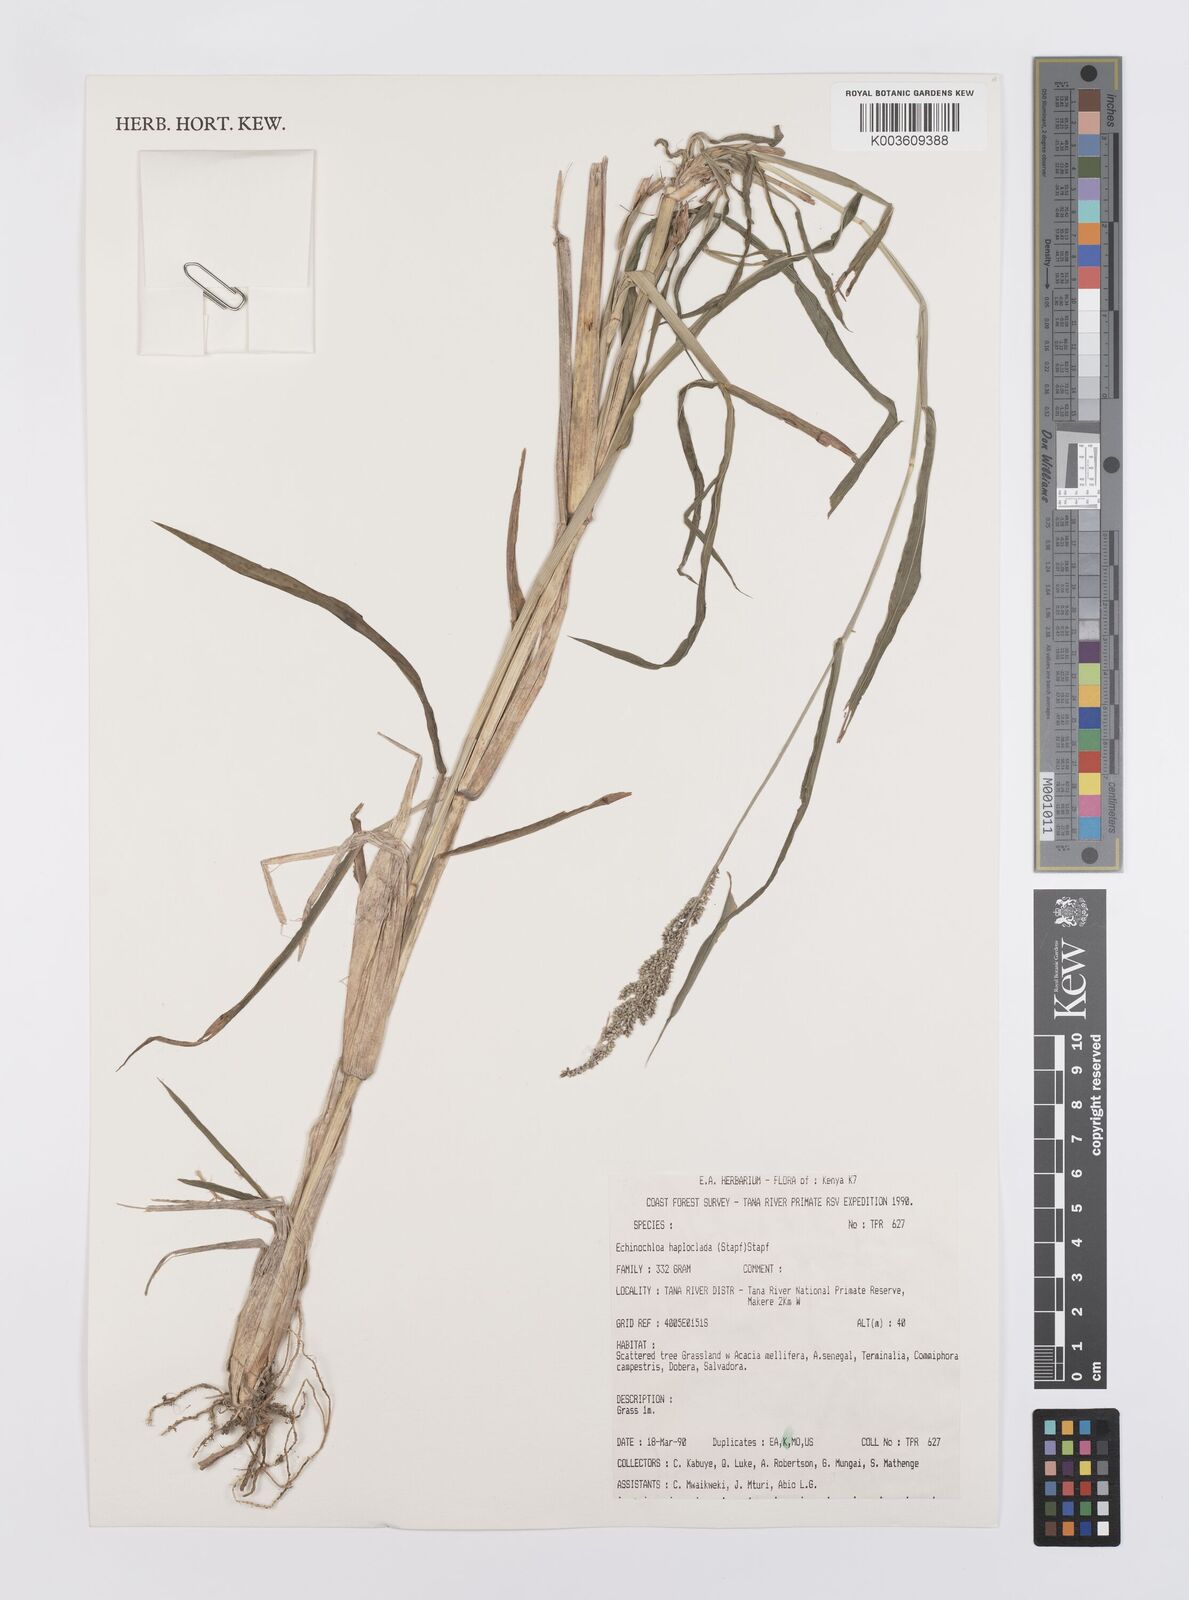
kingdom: Plantae
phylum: Tracheophyta
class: Liliopsida
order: Poales
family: Poaceae
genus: Echinochloa
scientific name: Echinochloa haploclada
